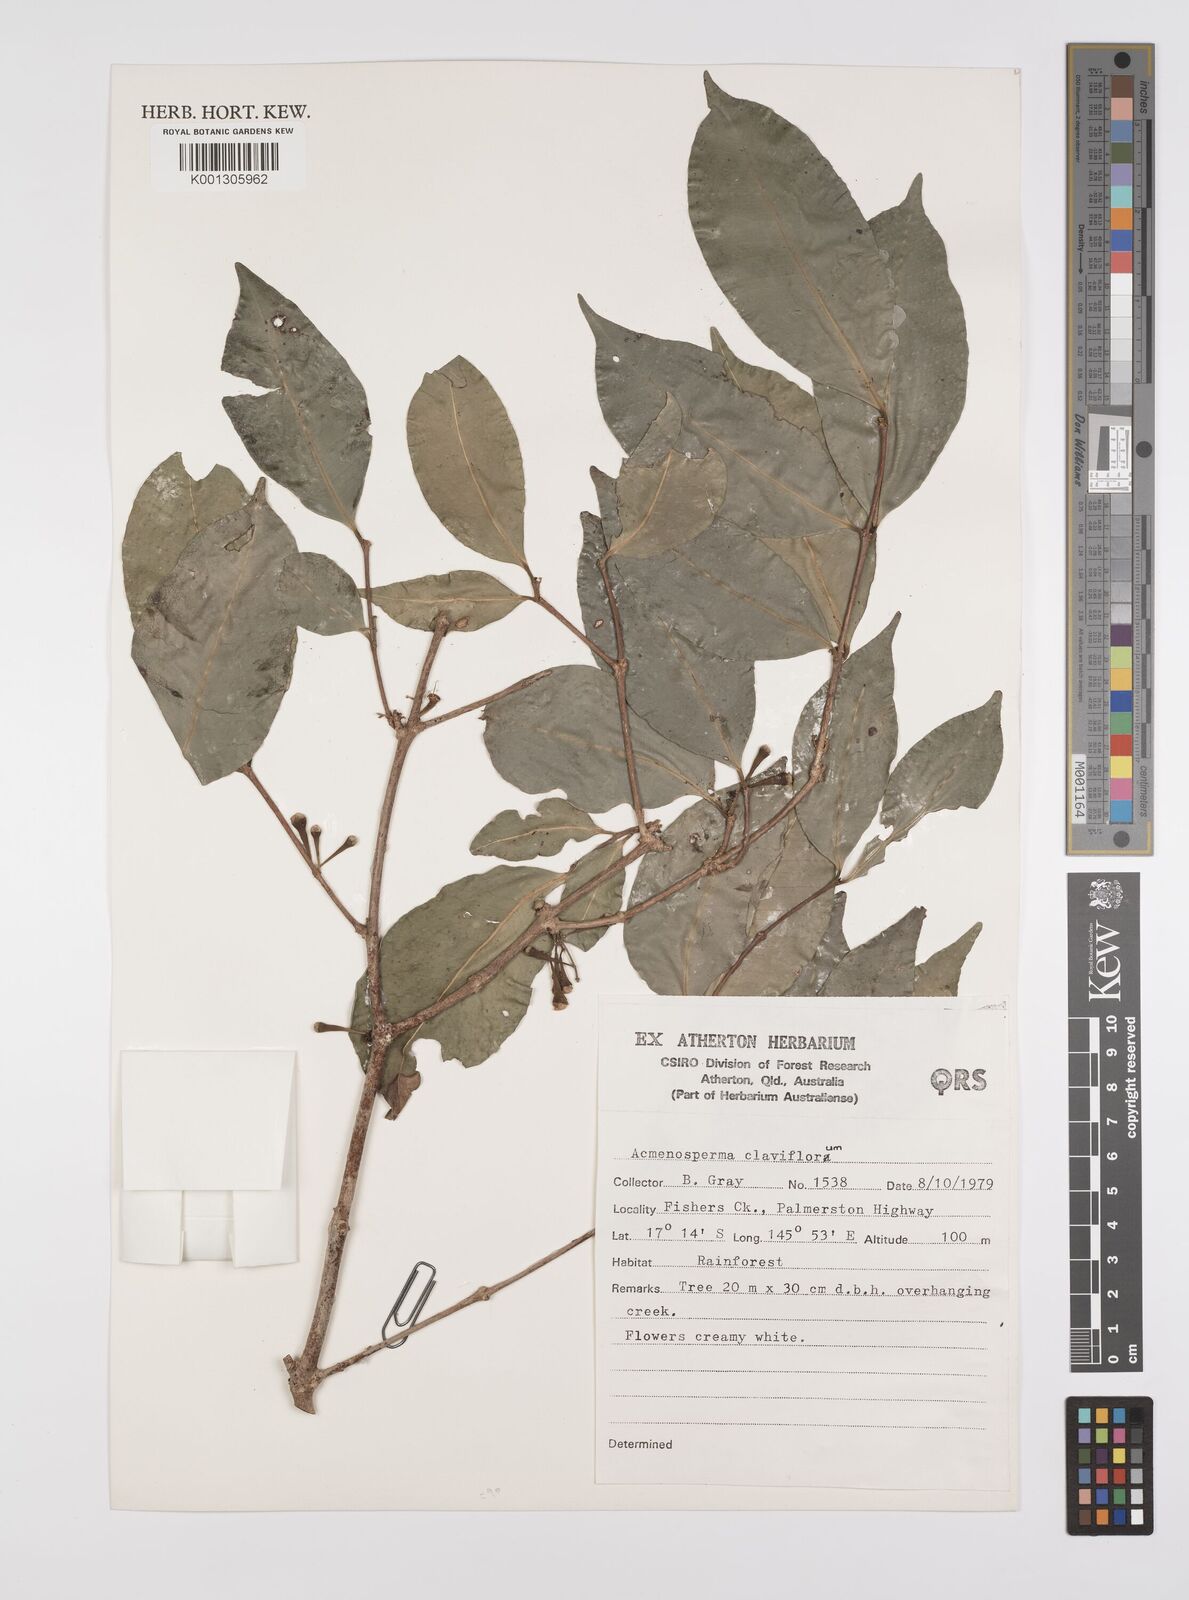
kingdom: Plantae
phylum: Tracheophyta
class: Magnoliopsida
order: Myrtales
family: Myrtaceae
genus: Syzygium
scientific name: Syzygium claviflorum
